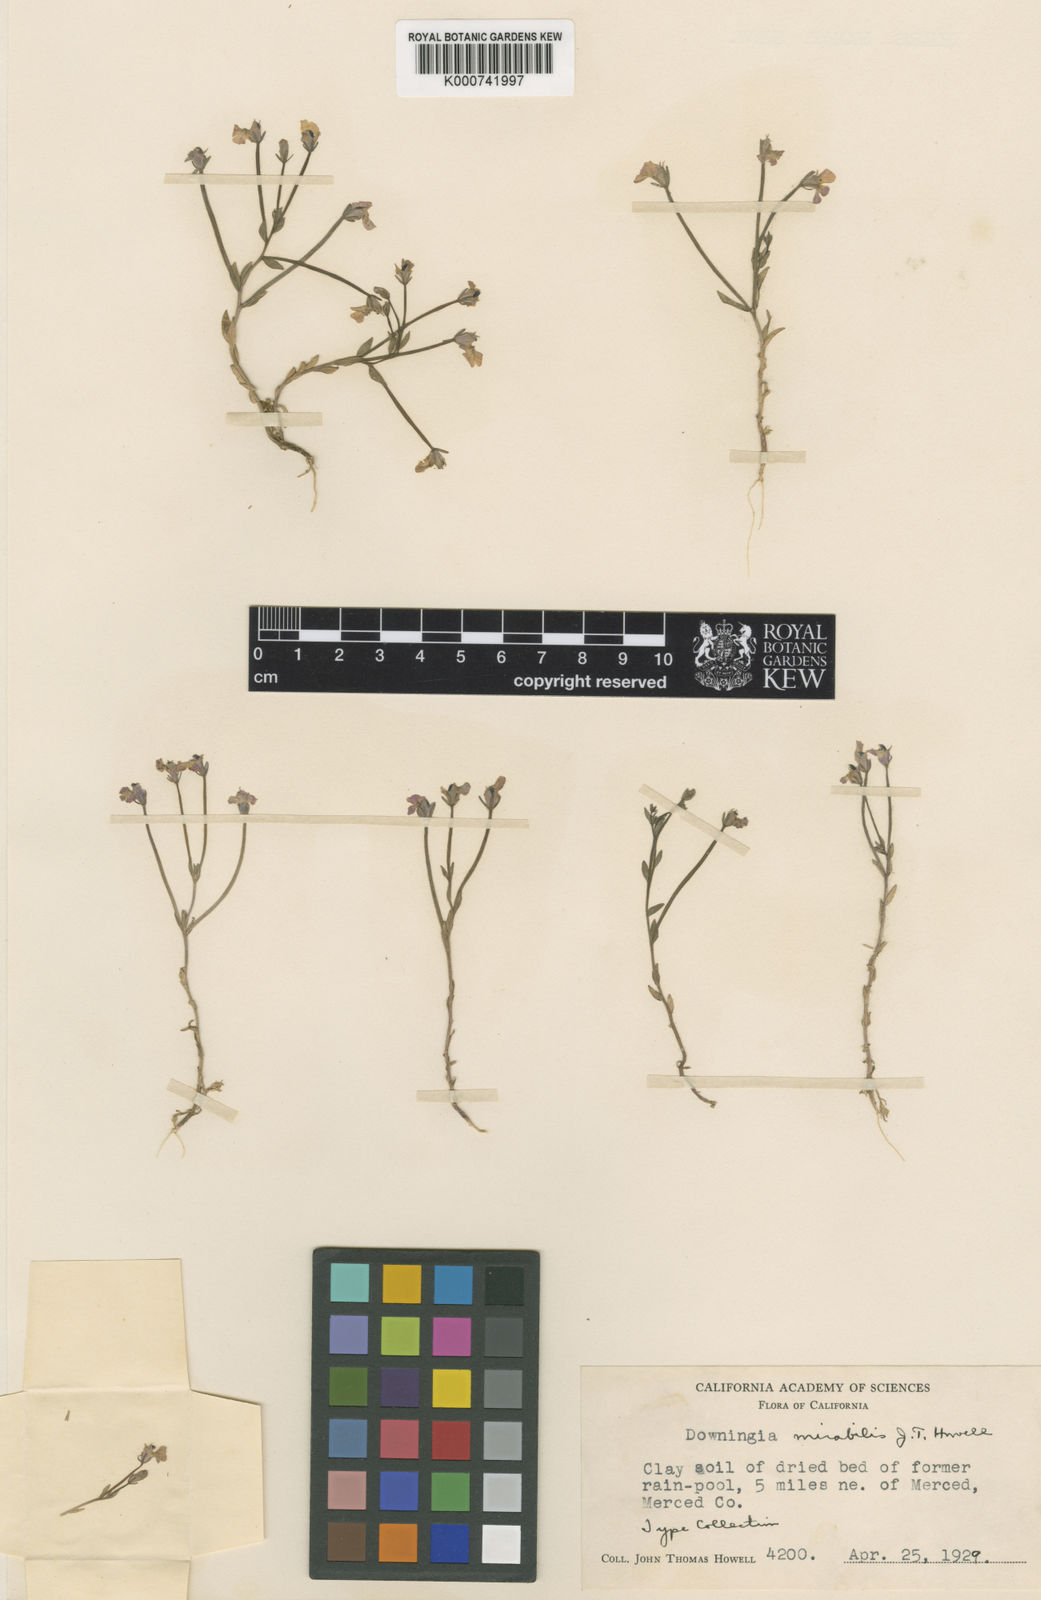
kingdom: Plantae
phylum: Tracheophyta
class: Magnoliopsida
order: Asterales
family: Campanulaceae
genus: Downingia
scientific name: Downingia ornatissima
